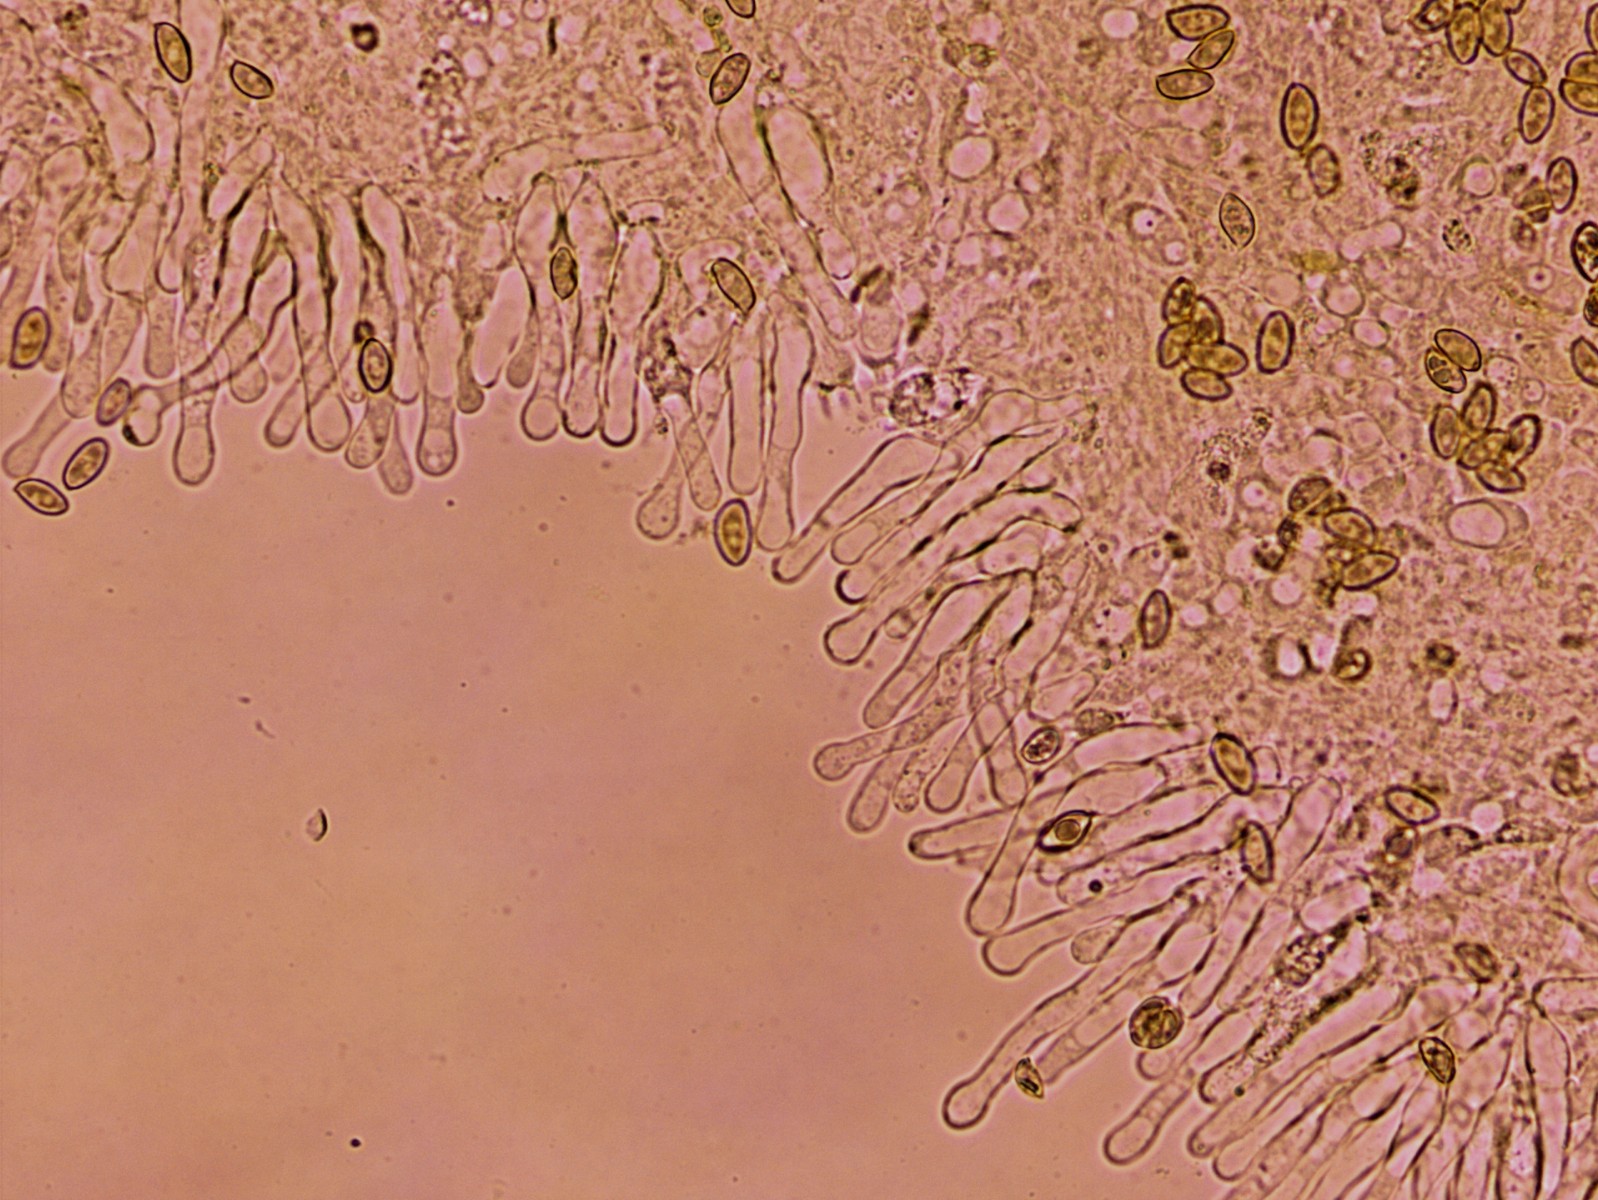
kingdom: Fungi
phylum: Basidiomycota
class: Agaricomycetes
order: Agaricales
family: Hymenogastraceae
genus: Galerina
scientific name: Galerina pumila
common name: honninggul hjelmhat
